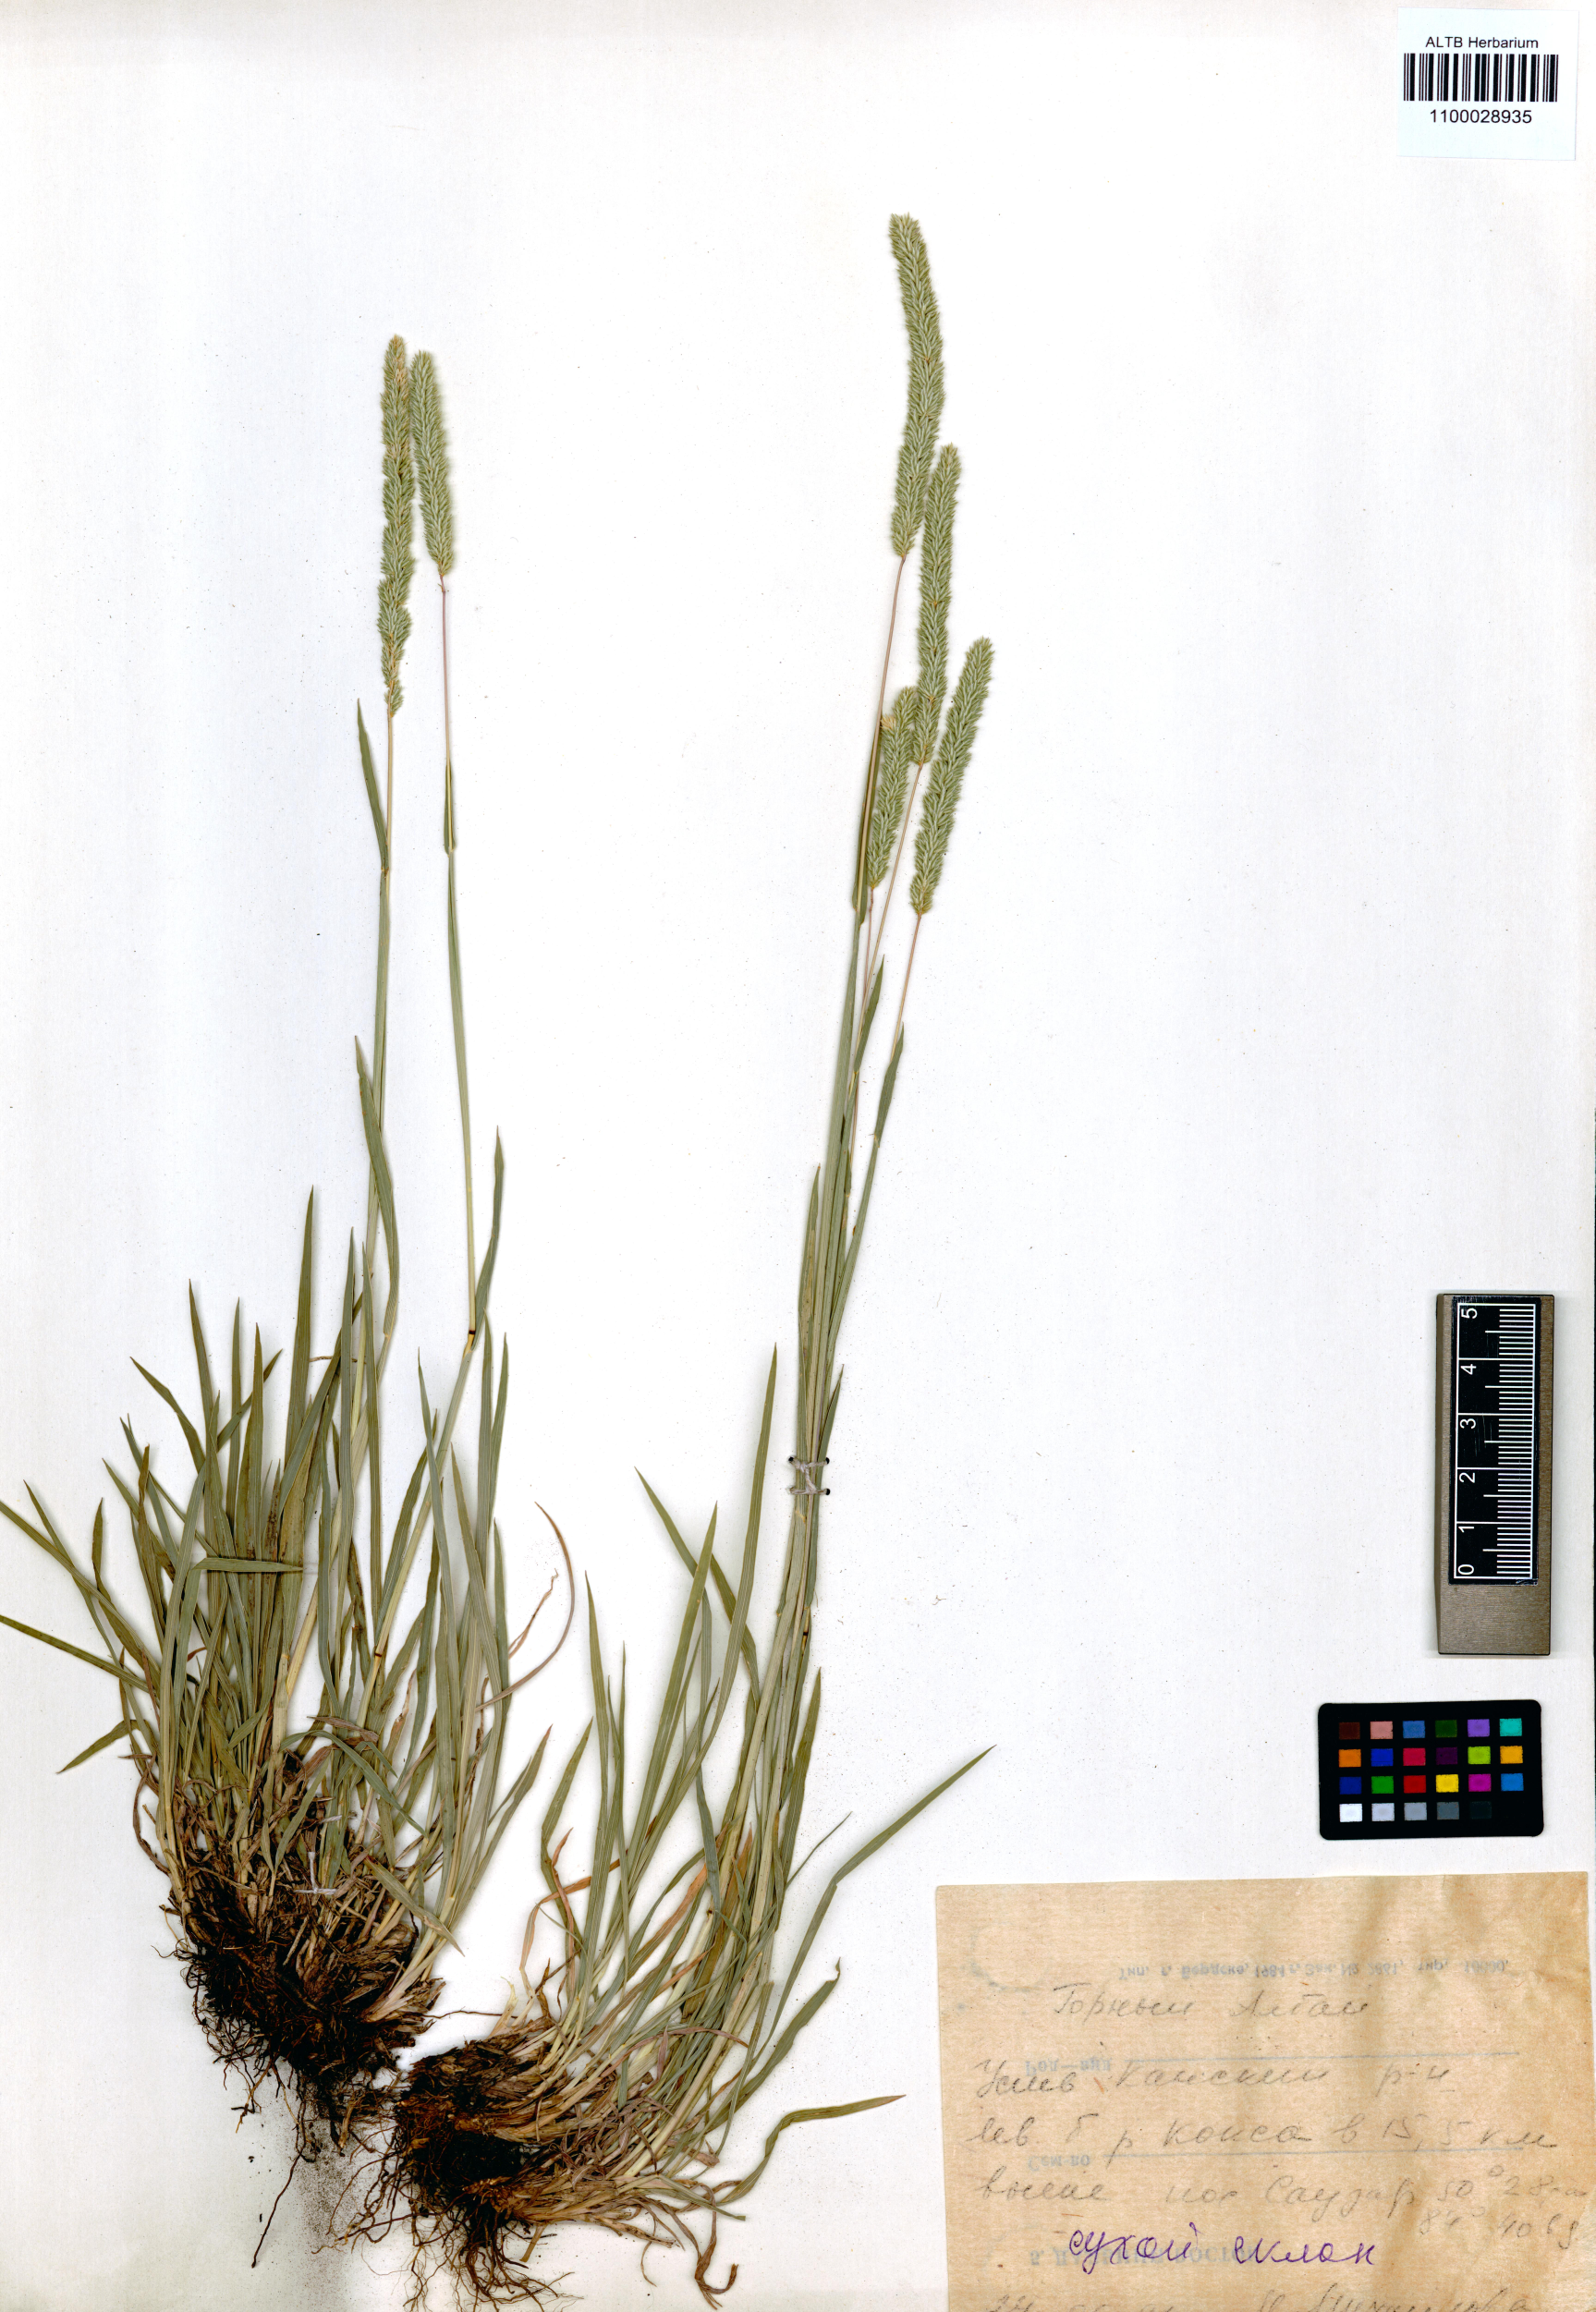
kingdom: Plantae
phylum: Tracheophyta
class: Liliopsida
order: Poales
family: Poaceae
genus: Phleum
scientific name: Phleum pratense
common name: Timothy grass
